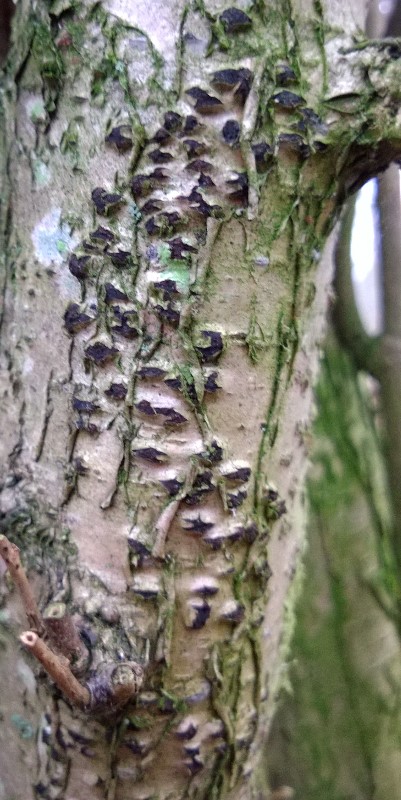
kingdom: Fungi
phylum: Ascomycota
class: Sordariomycetes
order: Sordariales
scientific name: Sordariales
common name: kernesvampordenen
